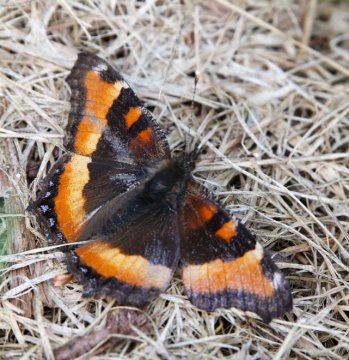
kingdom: Animalia
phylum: Arthropoda
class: Insecta
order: Lepidoptera
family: Nymphalidae
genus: Aglais
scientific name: Aglais milberti
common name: Milbert's Tortoiseshell
